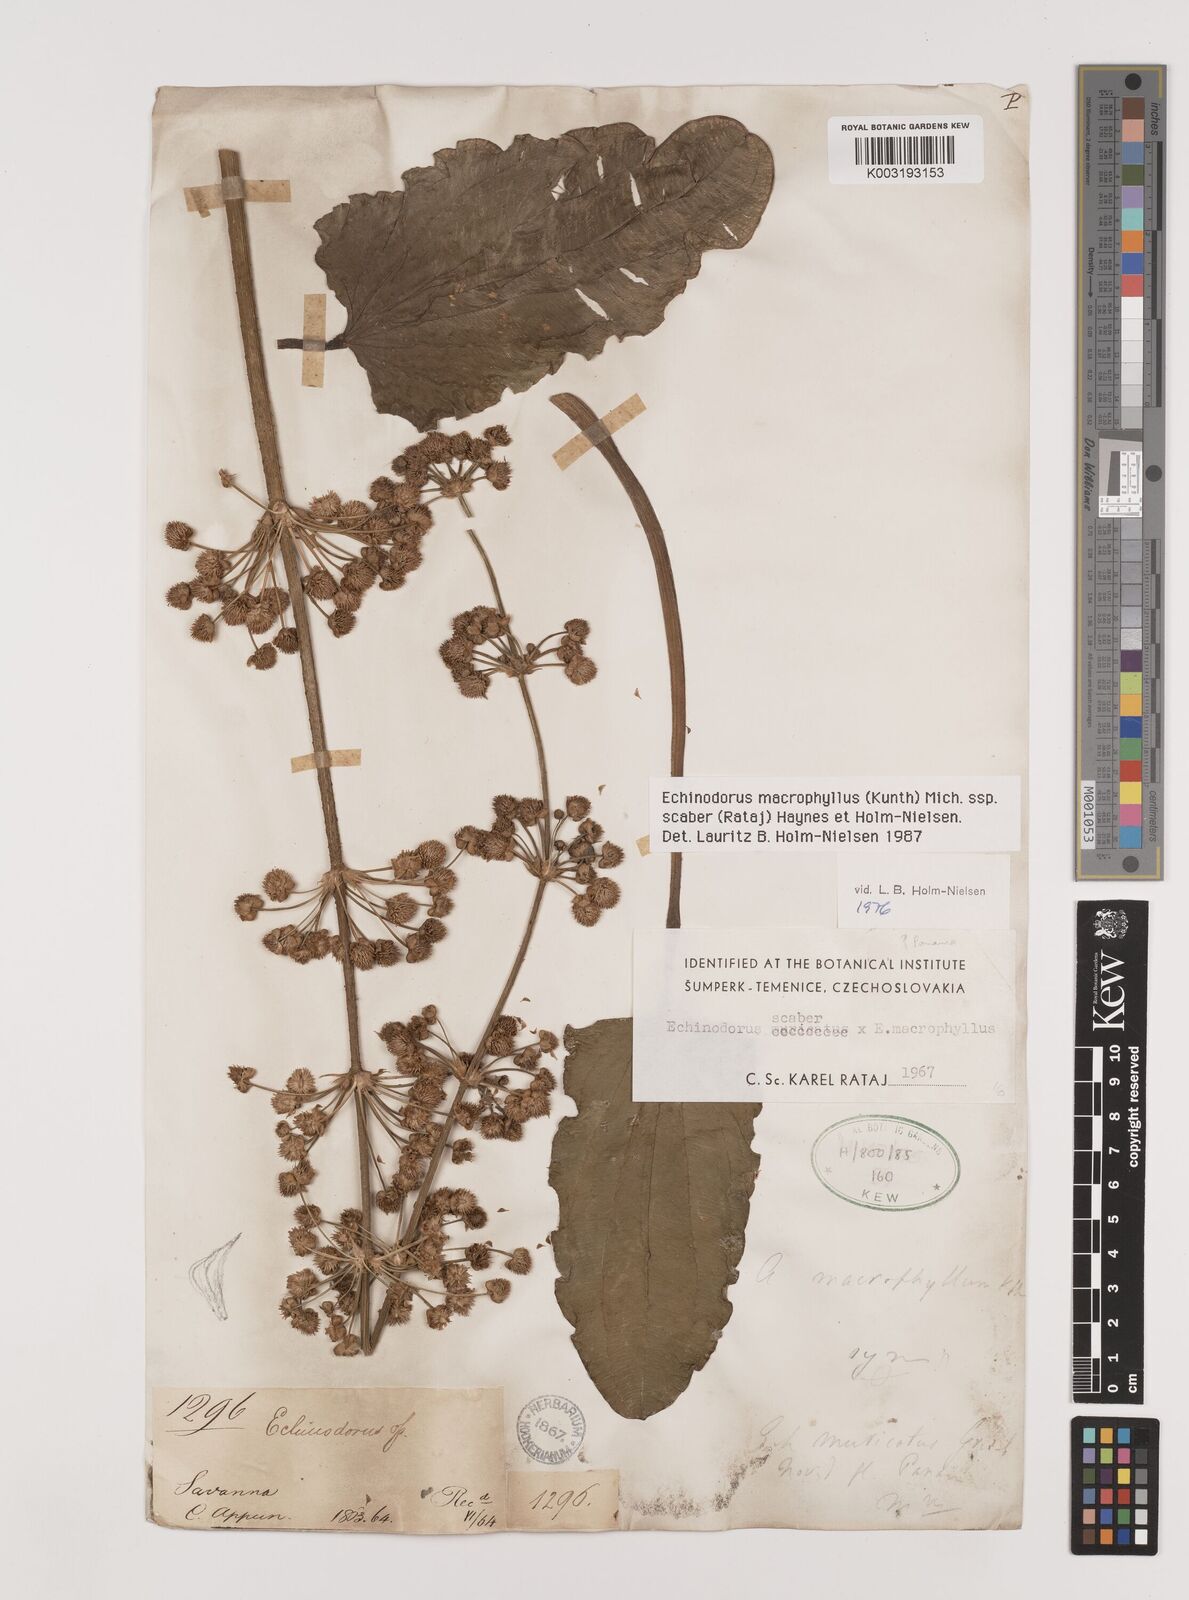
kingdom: Plantae
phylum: Tracheophyta
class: Liliopsida
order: Alismatales
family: Alismataceae
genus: Aquarius
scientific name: Aquarius macrophyllus
